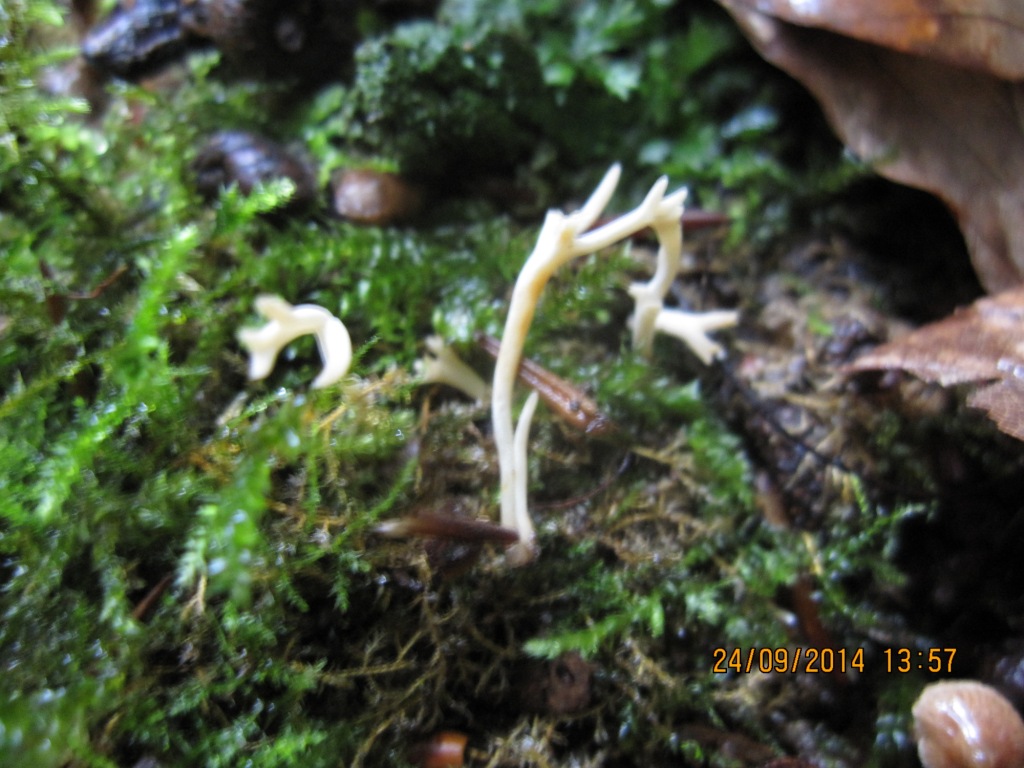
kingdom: Fungi
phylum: Basidiomycota
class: Agaricomycetes
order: Agaricales
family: Clavariaceae
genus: Ramariopsis
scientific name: Ramariopsis subtilis
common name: Slender coral
